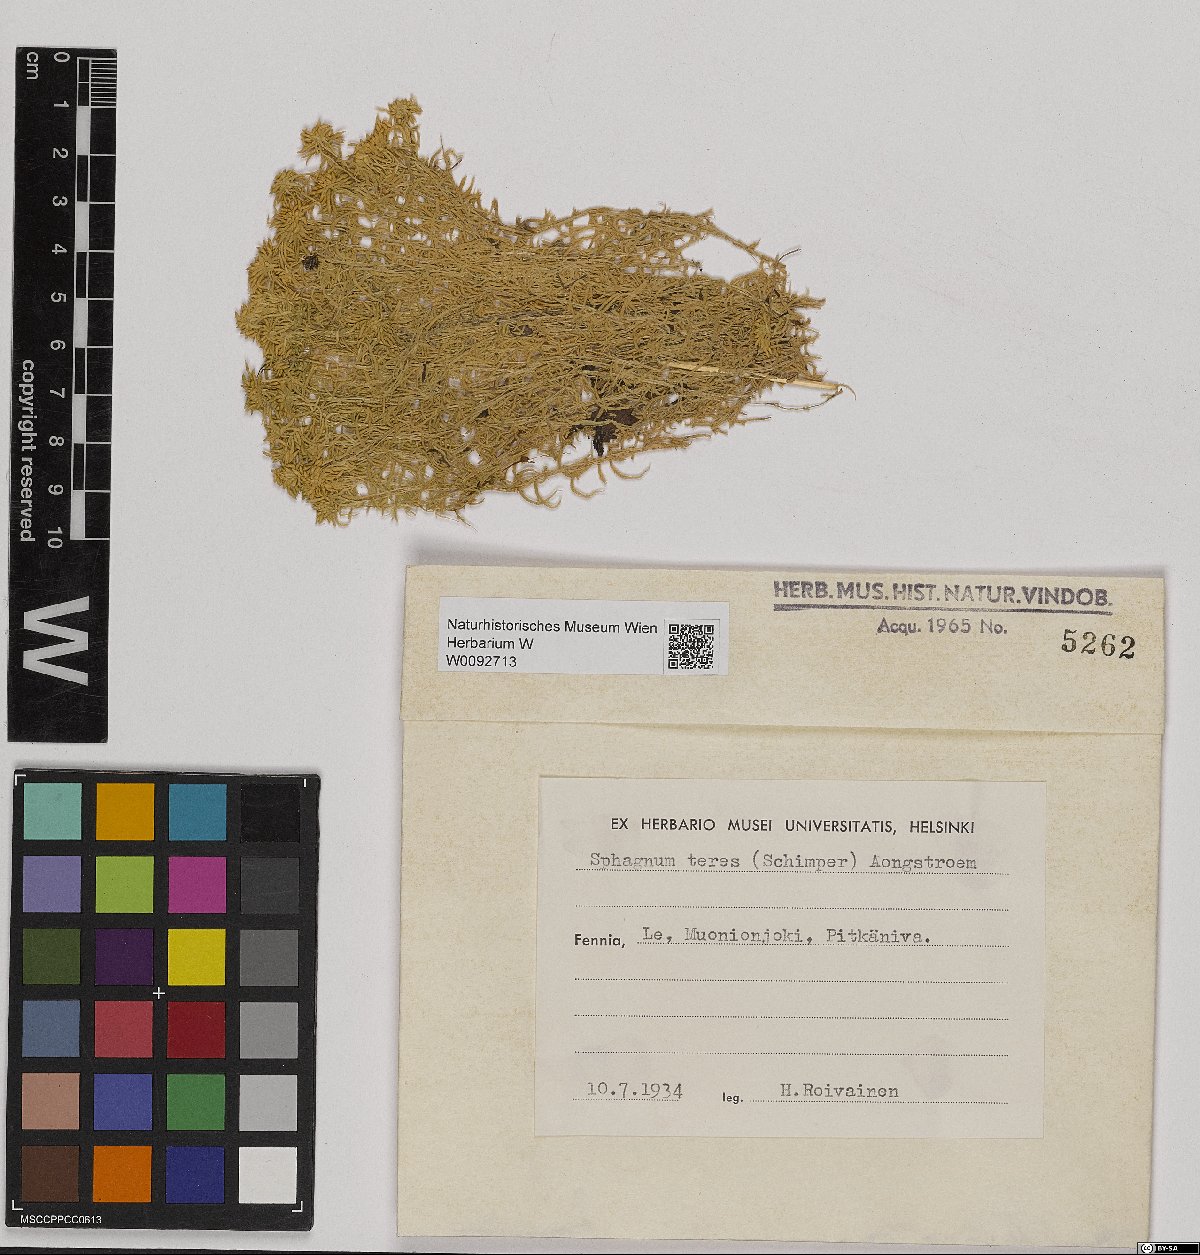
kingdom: Plantae
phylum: Bryophyta
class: Sphagnopsida
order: Sphagnales
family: Sphagnaceae
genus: Sphagnum
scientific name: Sphagnum centrale
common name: Central peat moss
